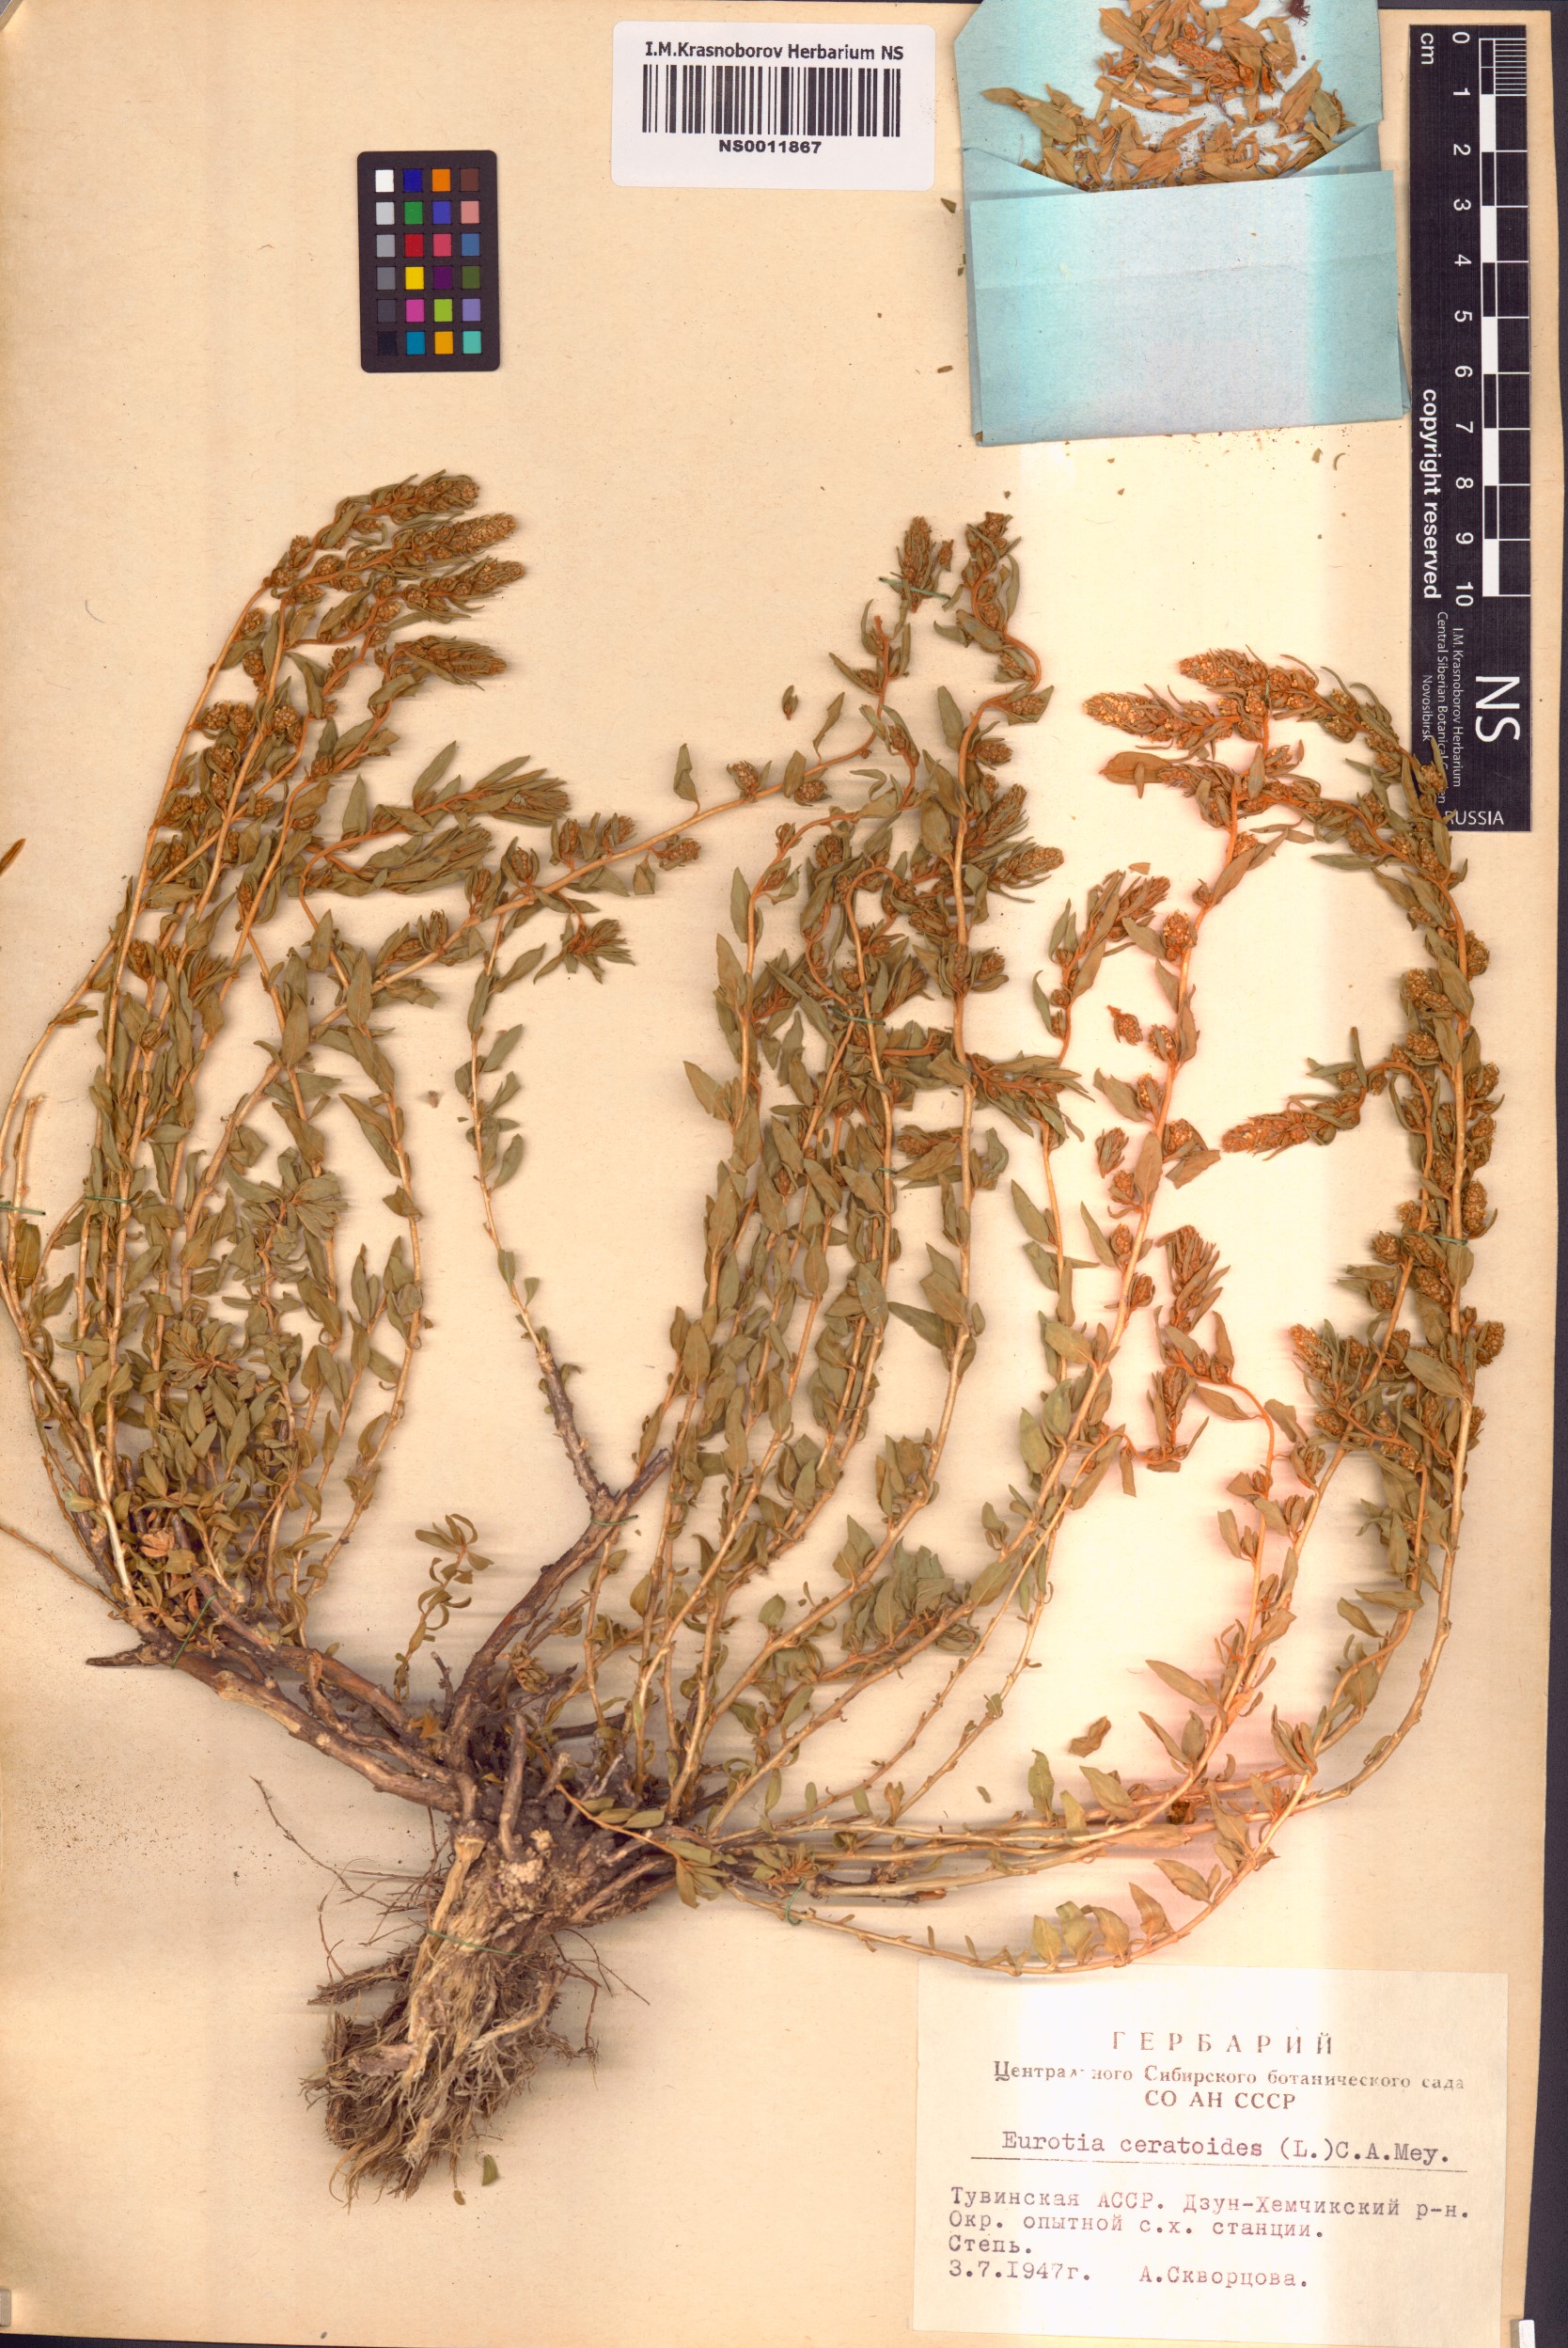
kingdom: Plantae
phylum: Tracheophyta
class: Magnoliopsida
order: Caryophyllales
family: Amaranthaceae
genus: Krascheninnikovia
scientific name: Krascheninnikovia ceratoides
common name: Pamirian winterfat
